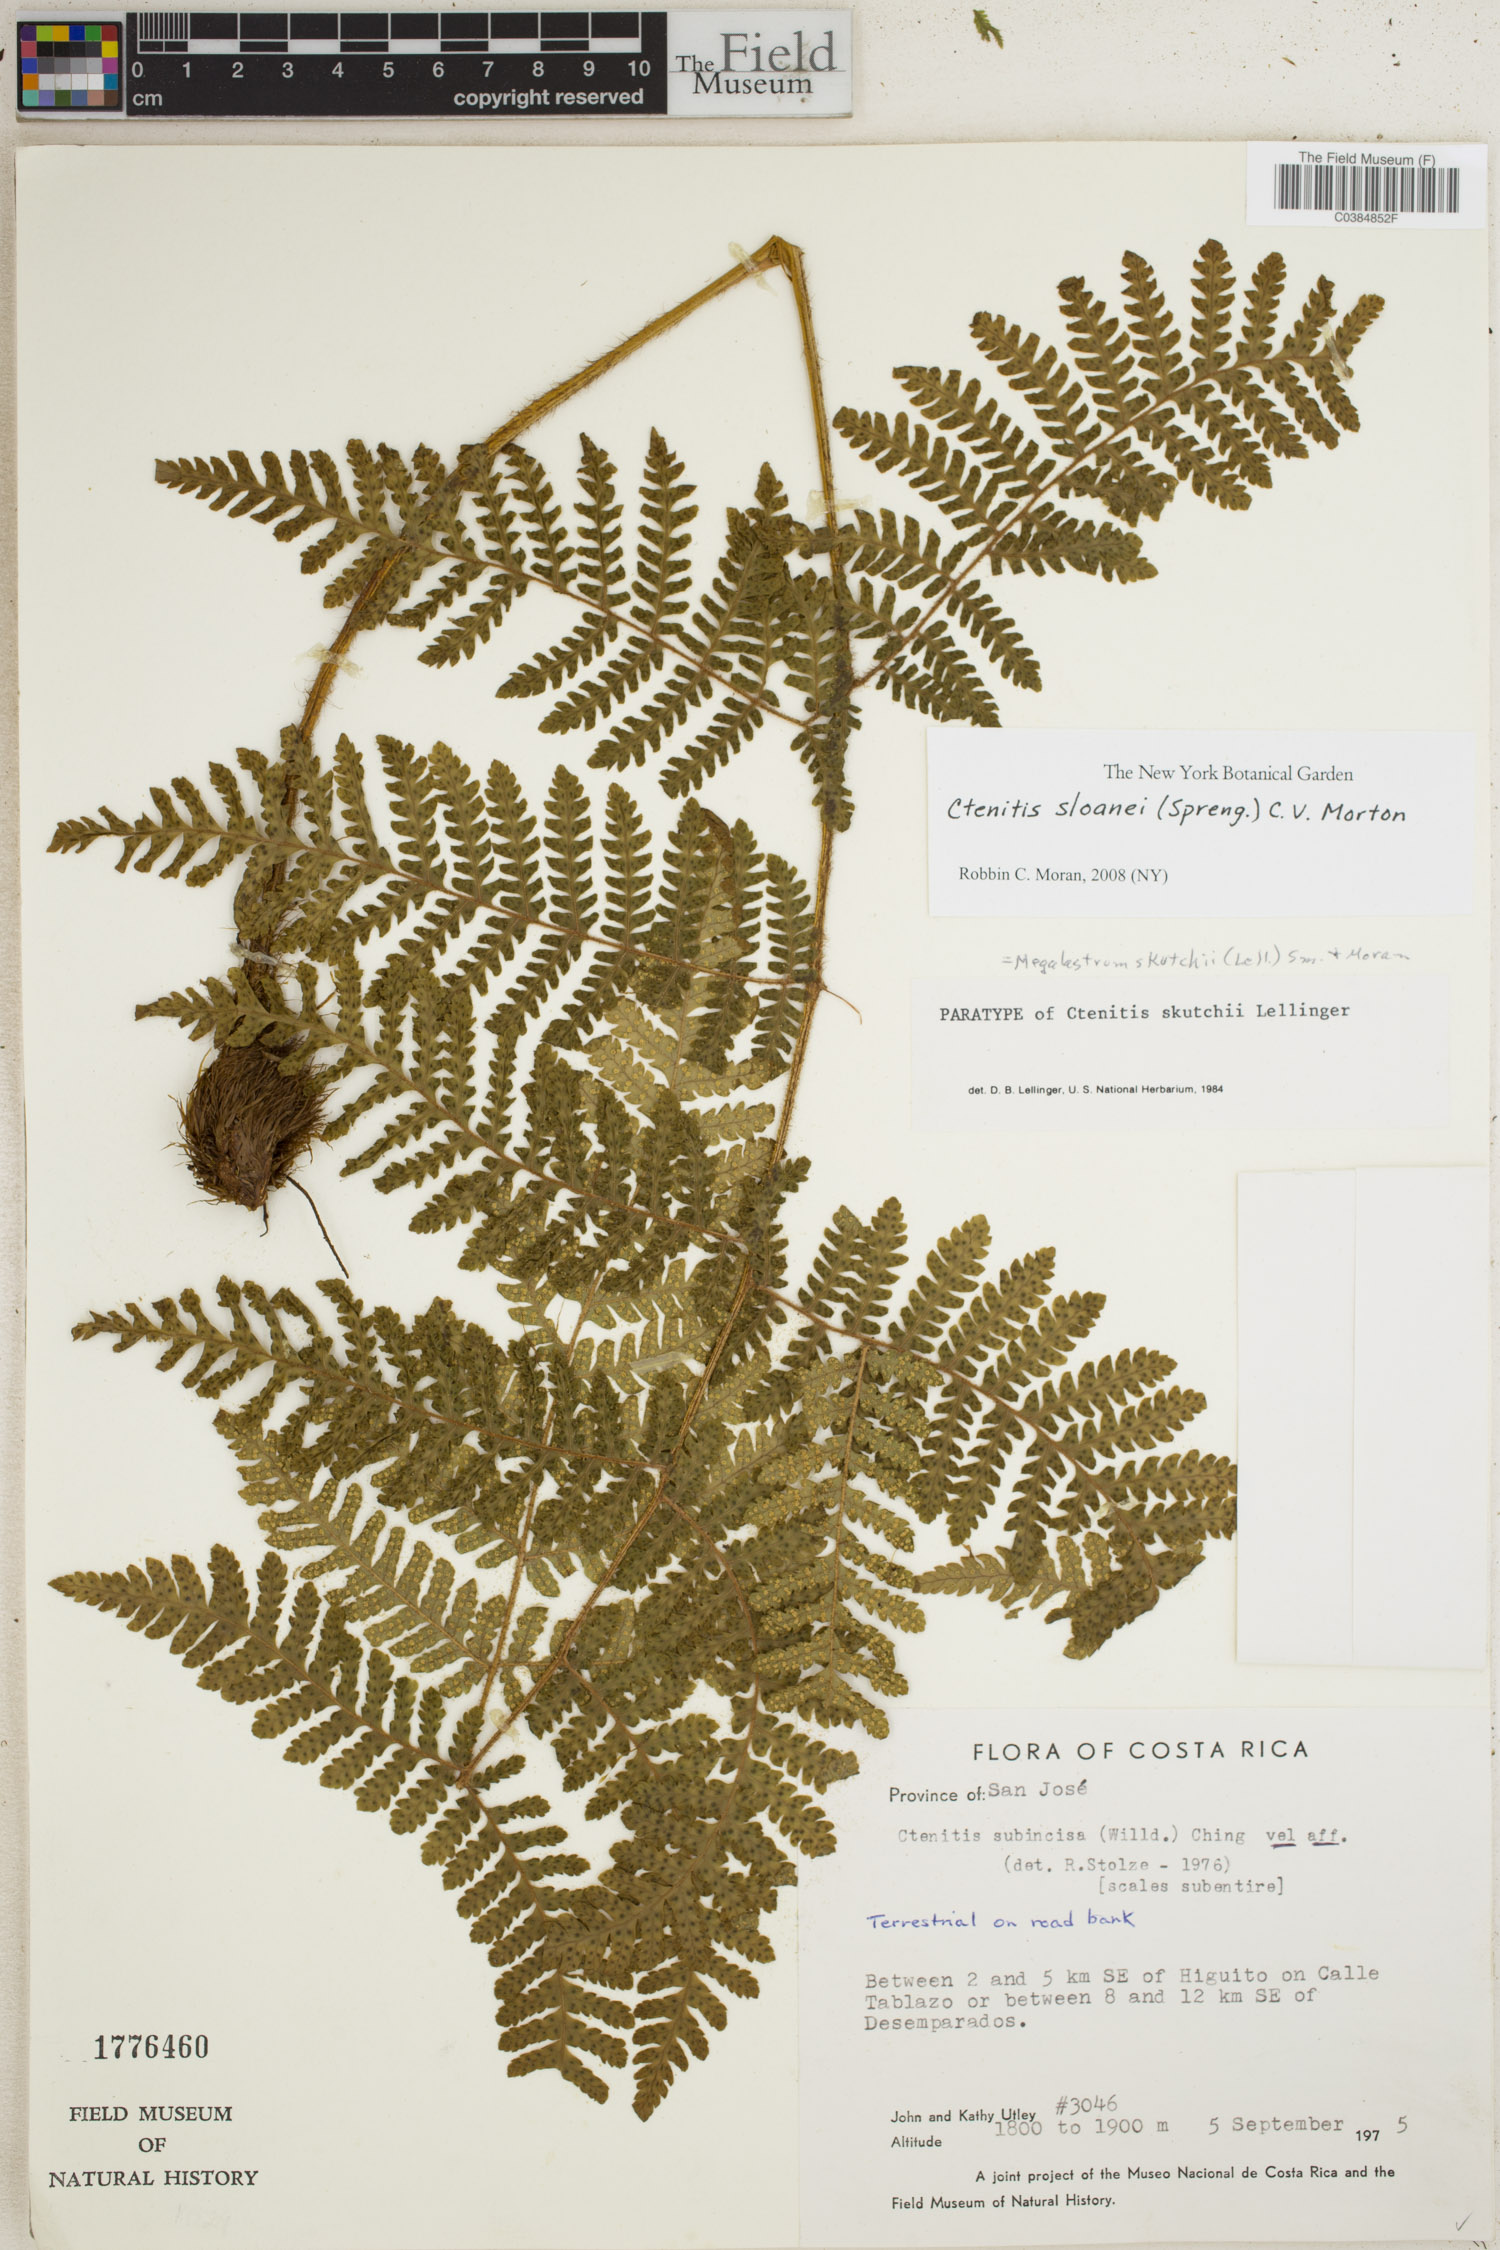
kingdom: Plantae
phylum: Tracheophyta
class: Polypodiopsida
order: Polypodiales
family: Dryopteridaceae
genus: Ctenitis
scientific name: Ctenitis sloanei
